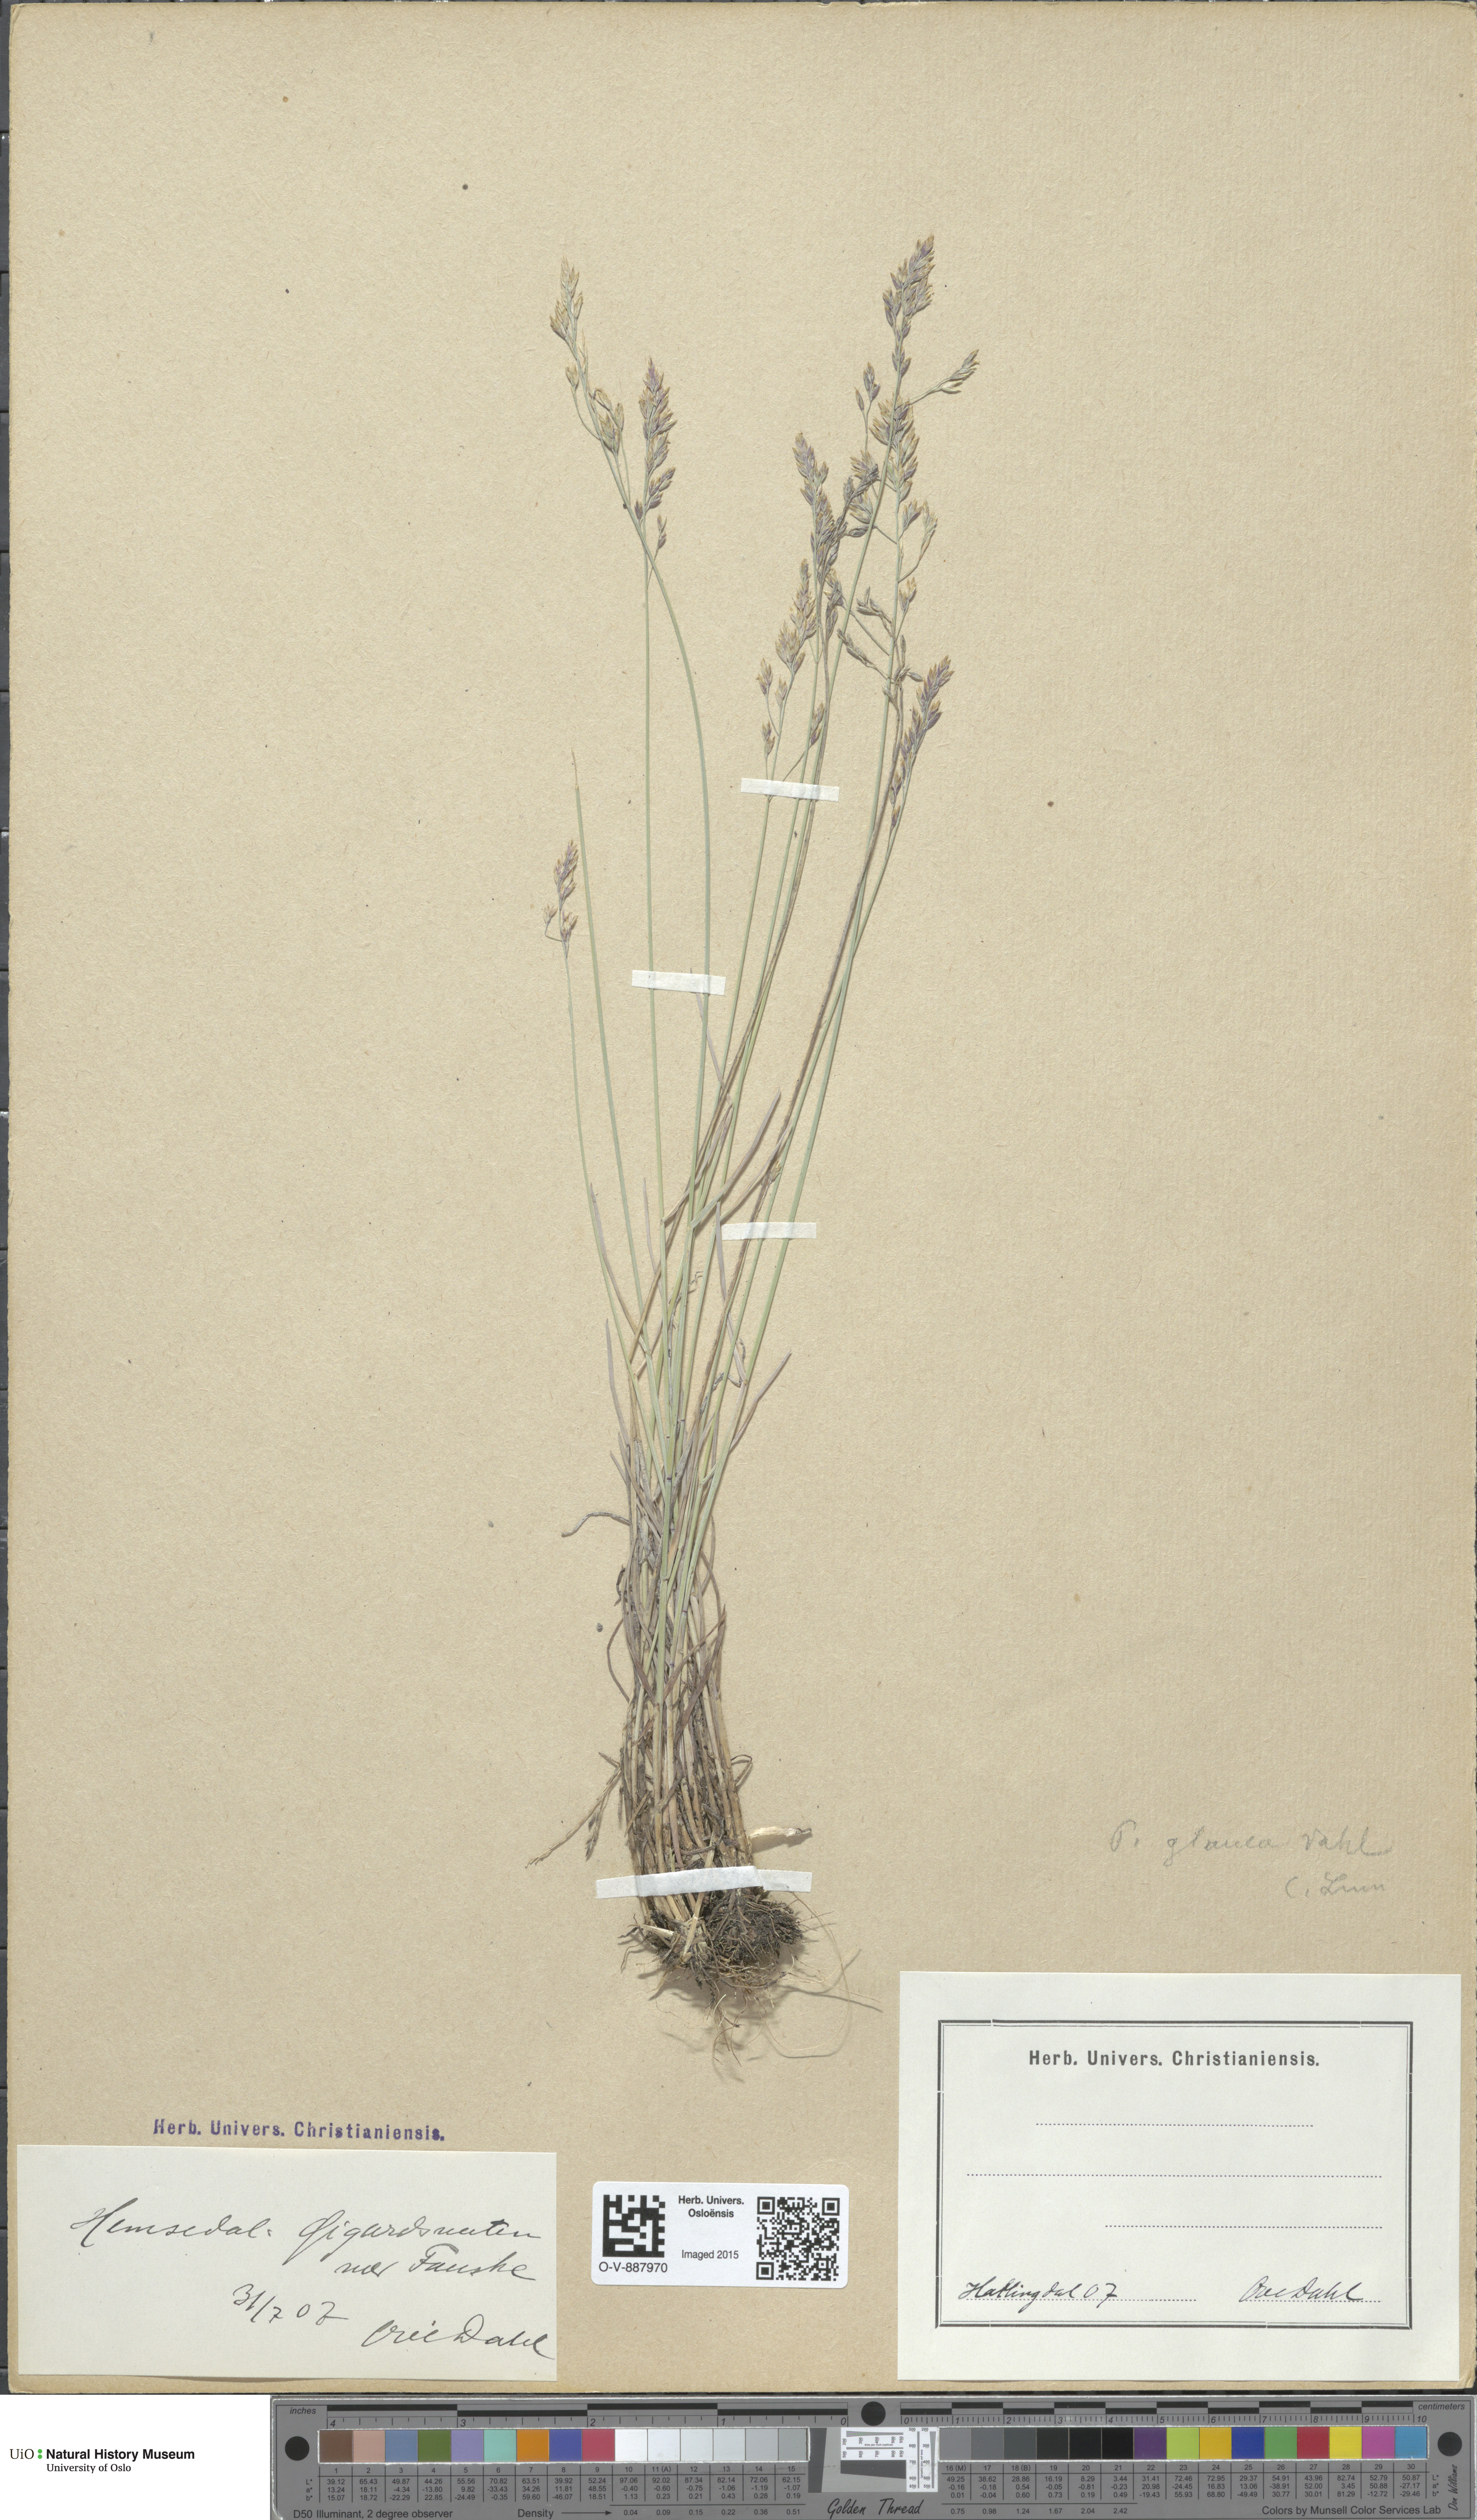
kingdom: Plantae
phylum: Tracheophyta
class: Liliopsida
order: Poales
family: Poaceae
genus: Poa
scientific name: Poa glauca
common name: Glaucous bluegrass
